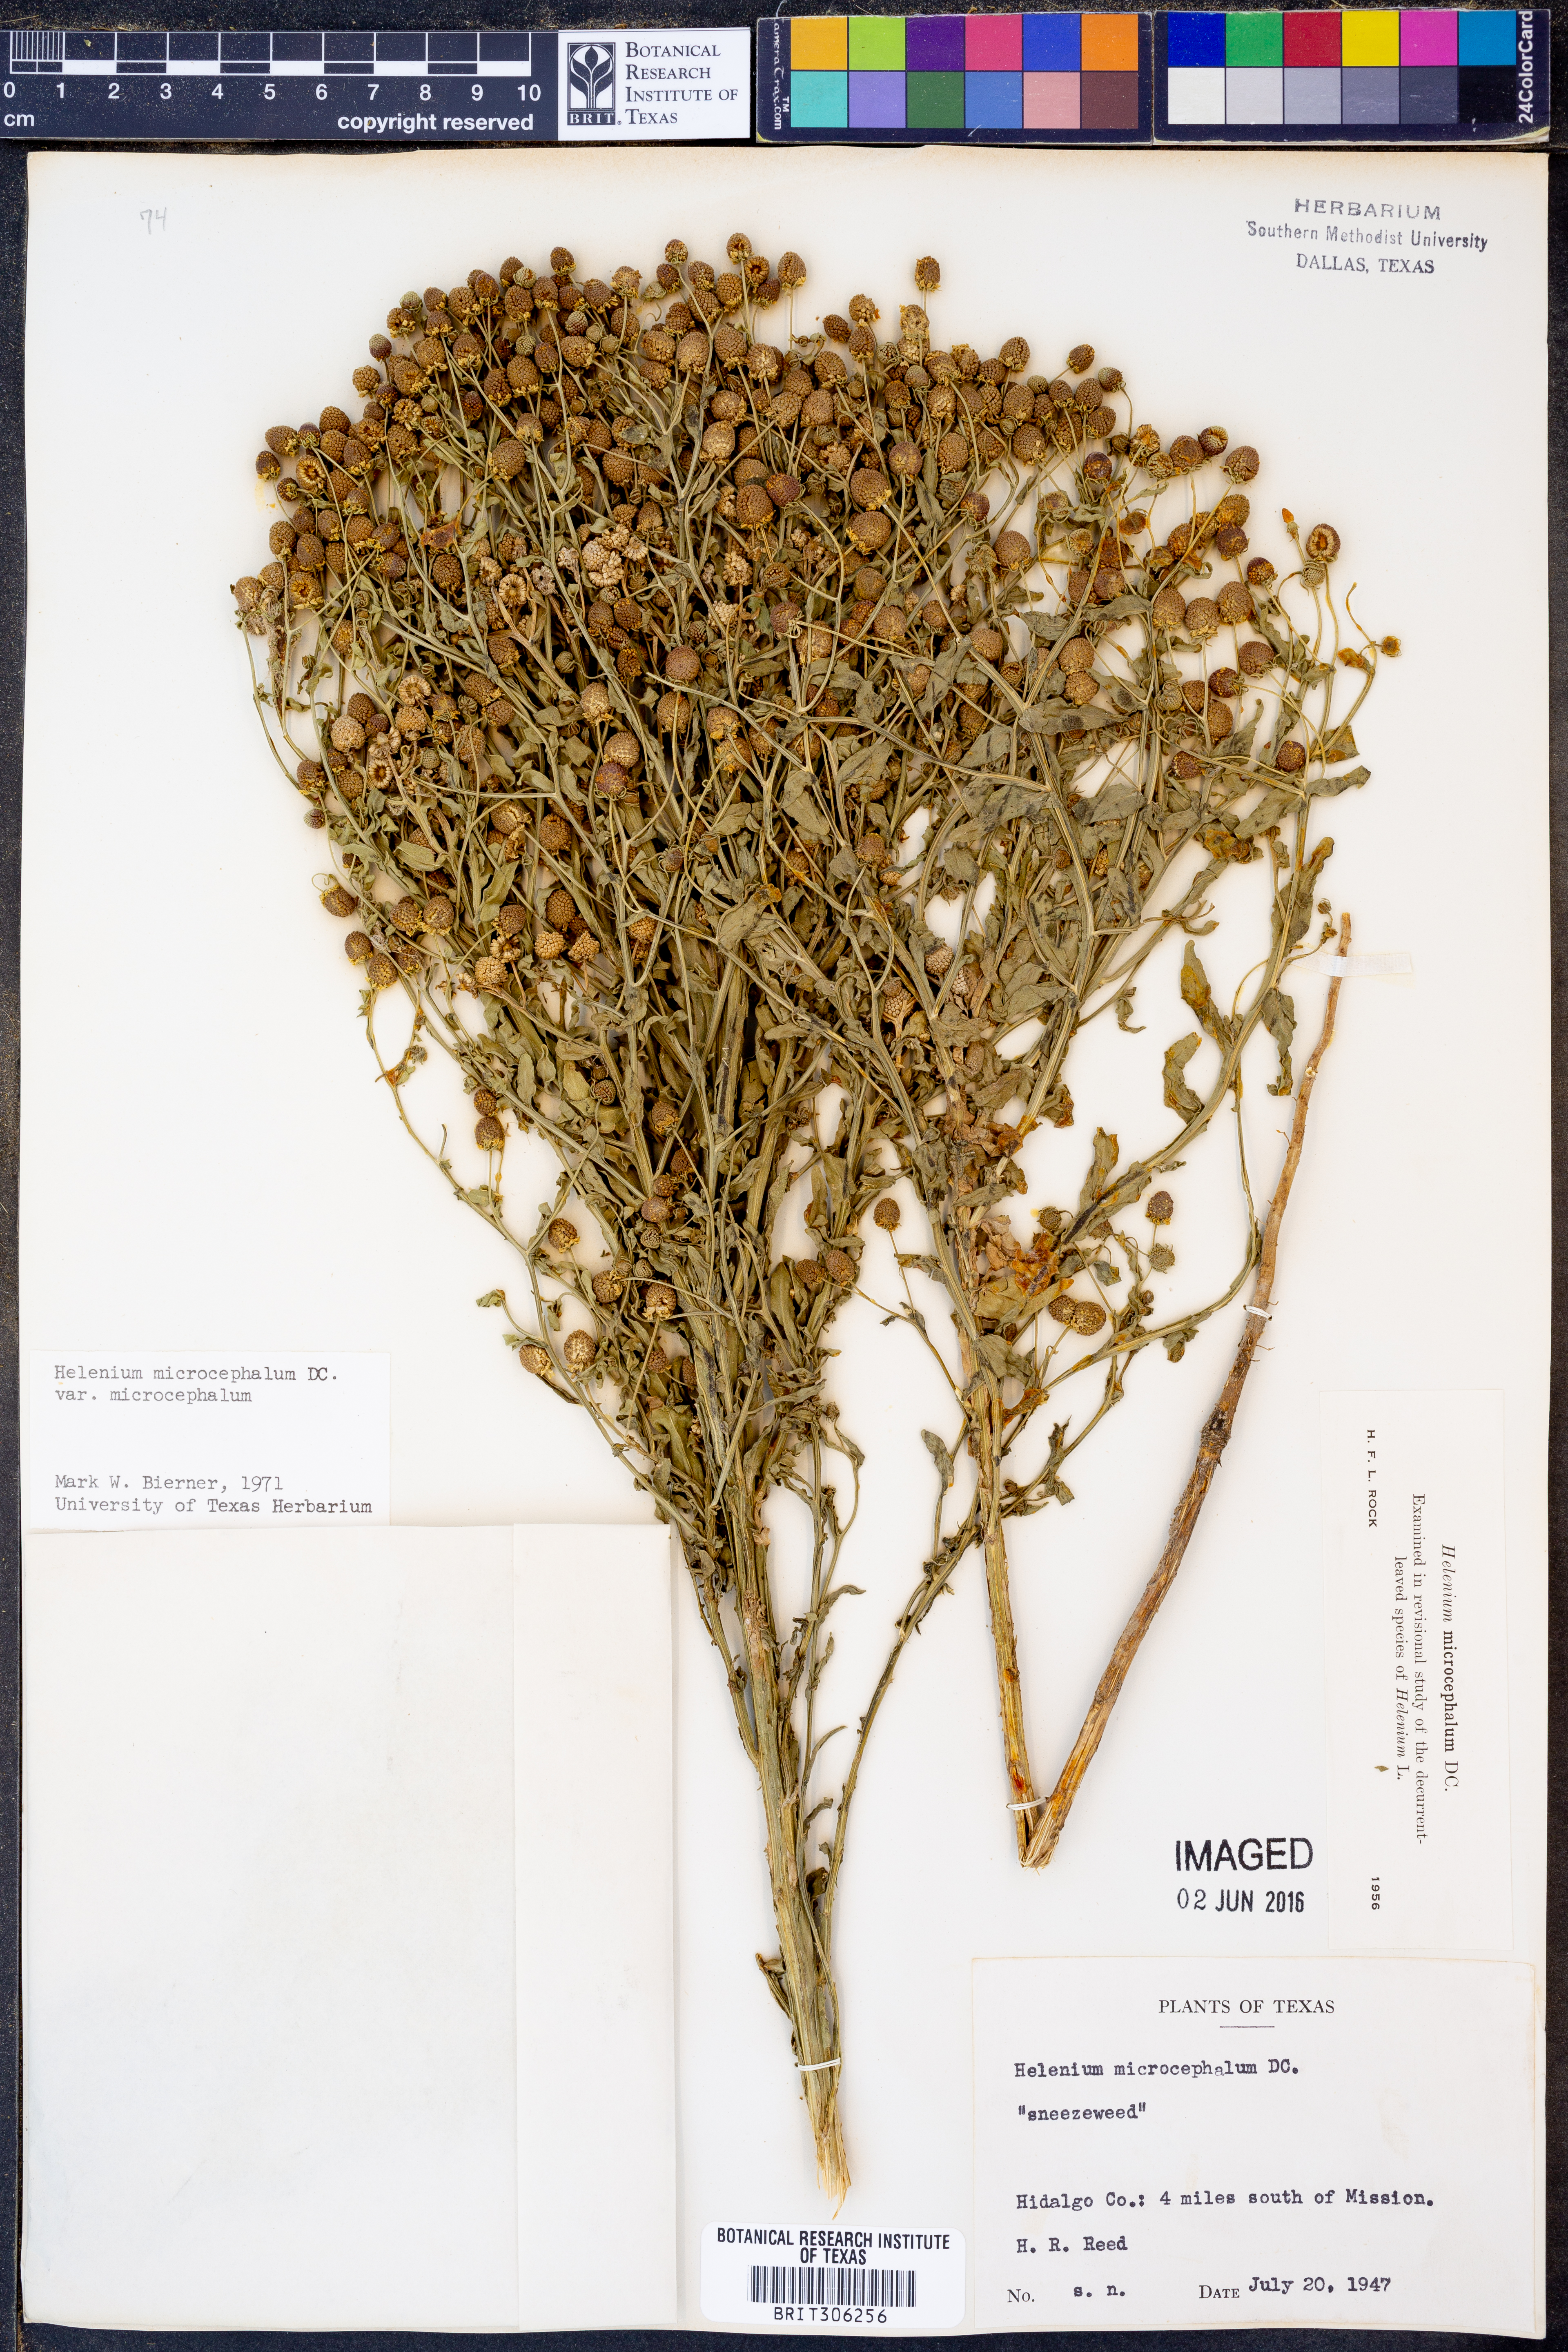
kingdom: Plantae
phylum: Tracheophyta
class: Magnoliopsida
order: Asterales
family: Asteraceae
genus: Helenium
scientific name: Helenium microcephalum
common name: Smallhead sneezeweed
